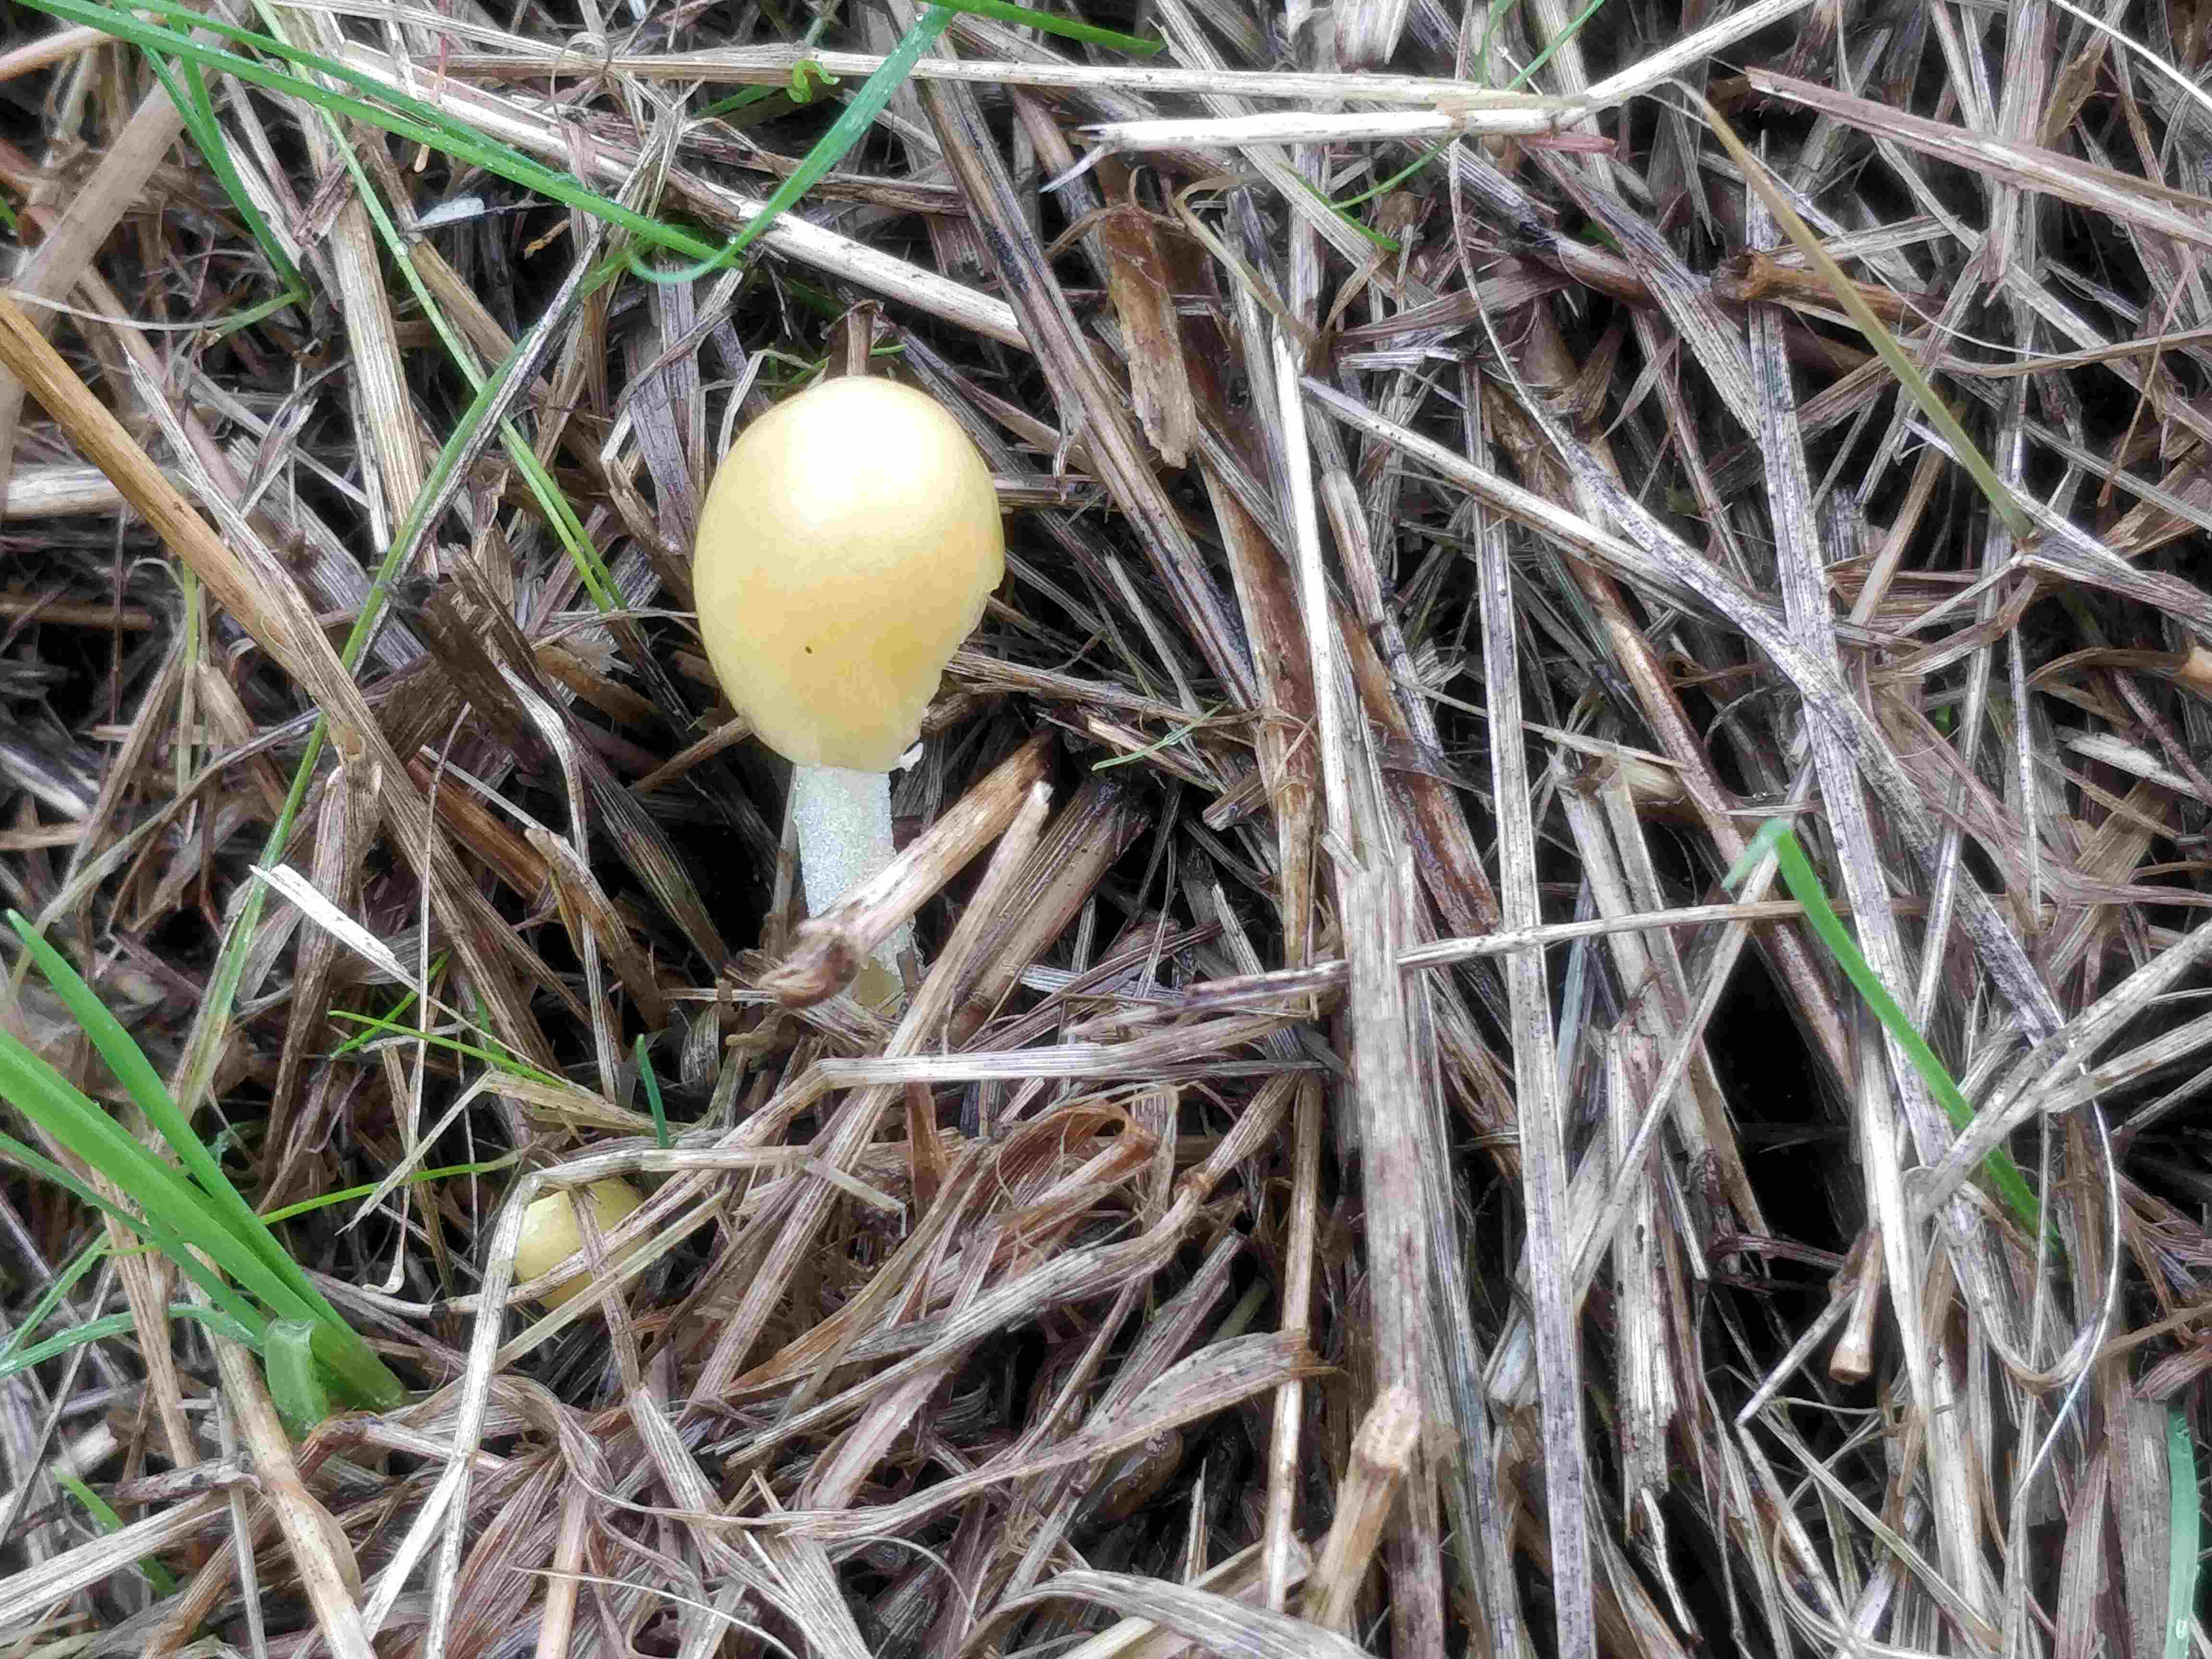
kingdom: Fungi
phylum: Basidiomycota
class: Agaricomycetes
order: Agaricales
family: Bolbitiaceae
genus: Bolbitius
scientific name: Bolbitius titubans
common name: almindelig gulhat
